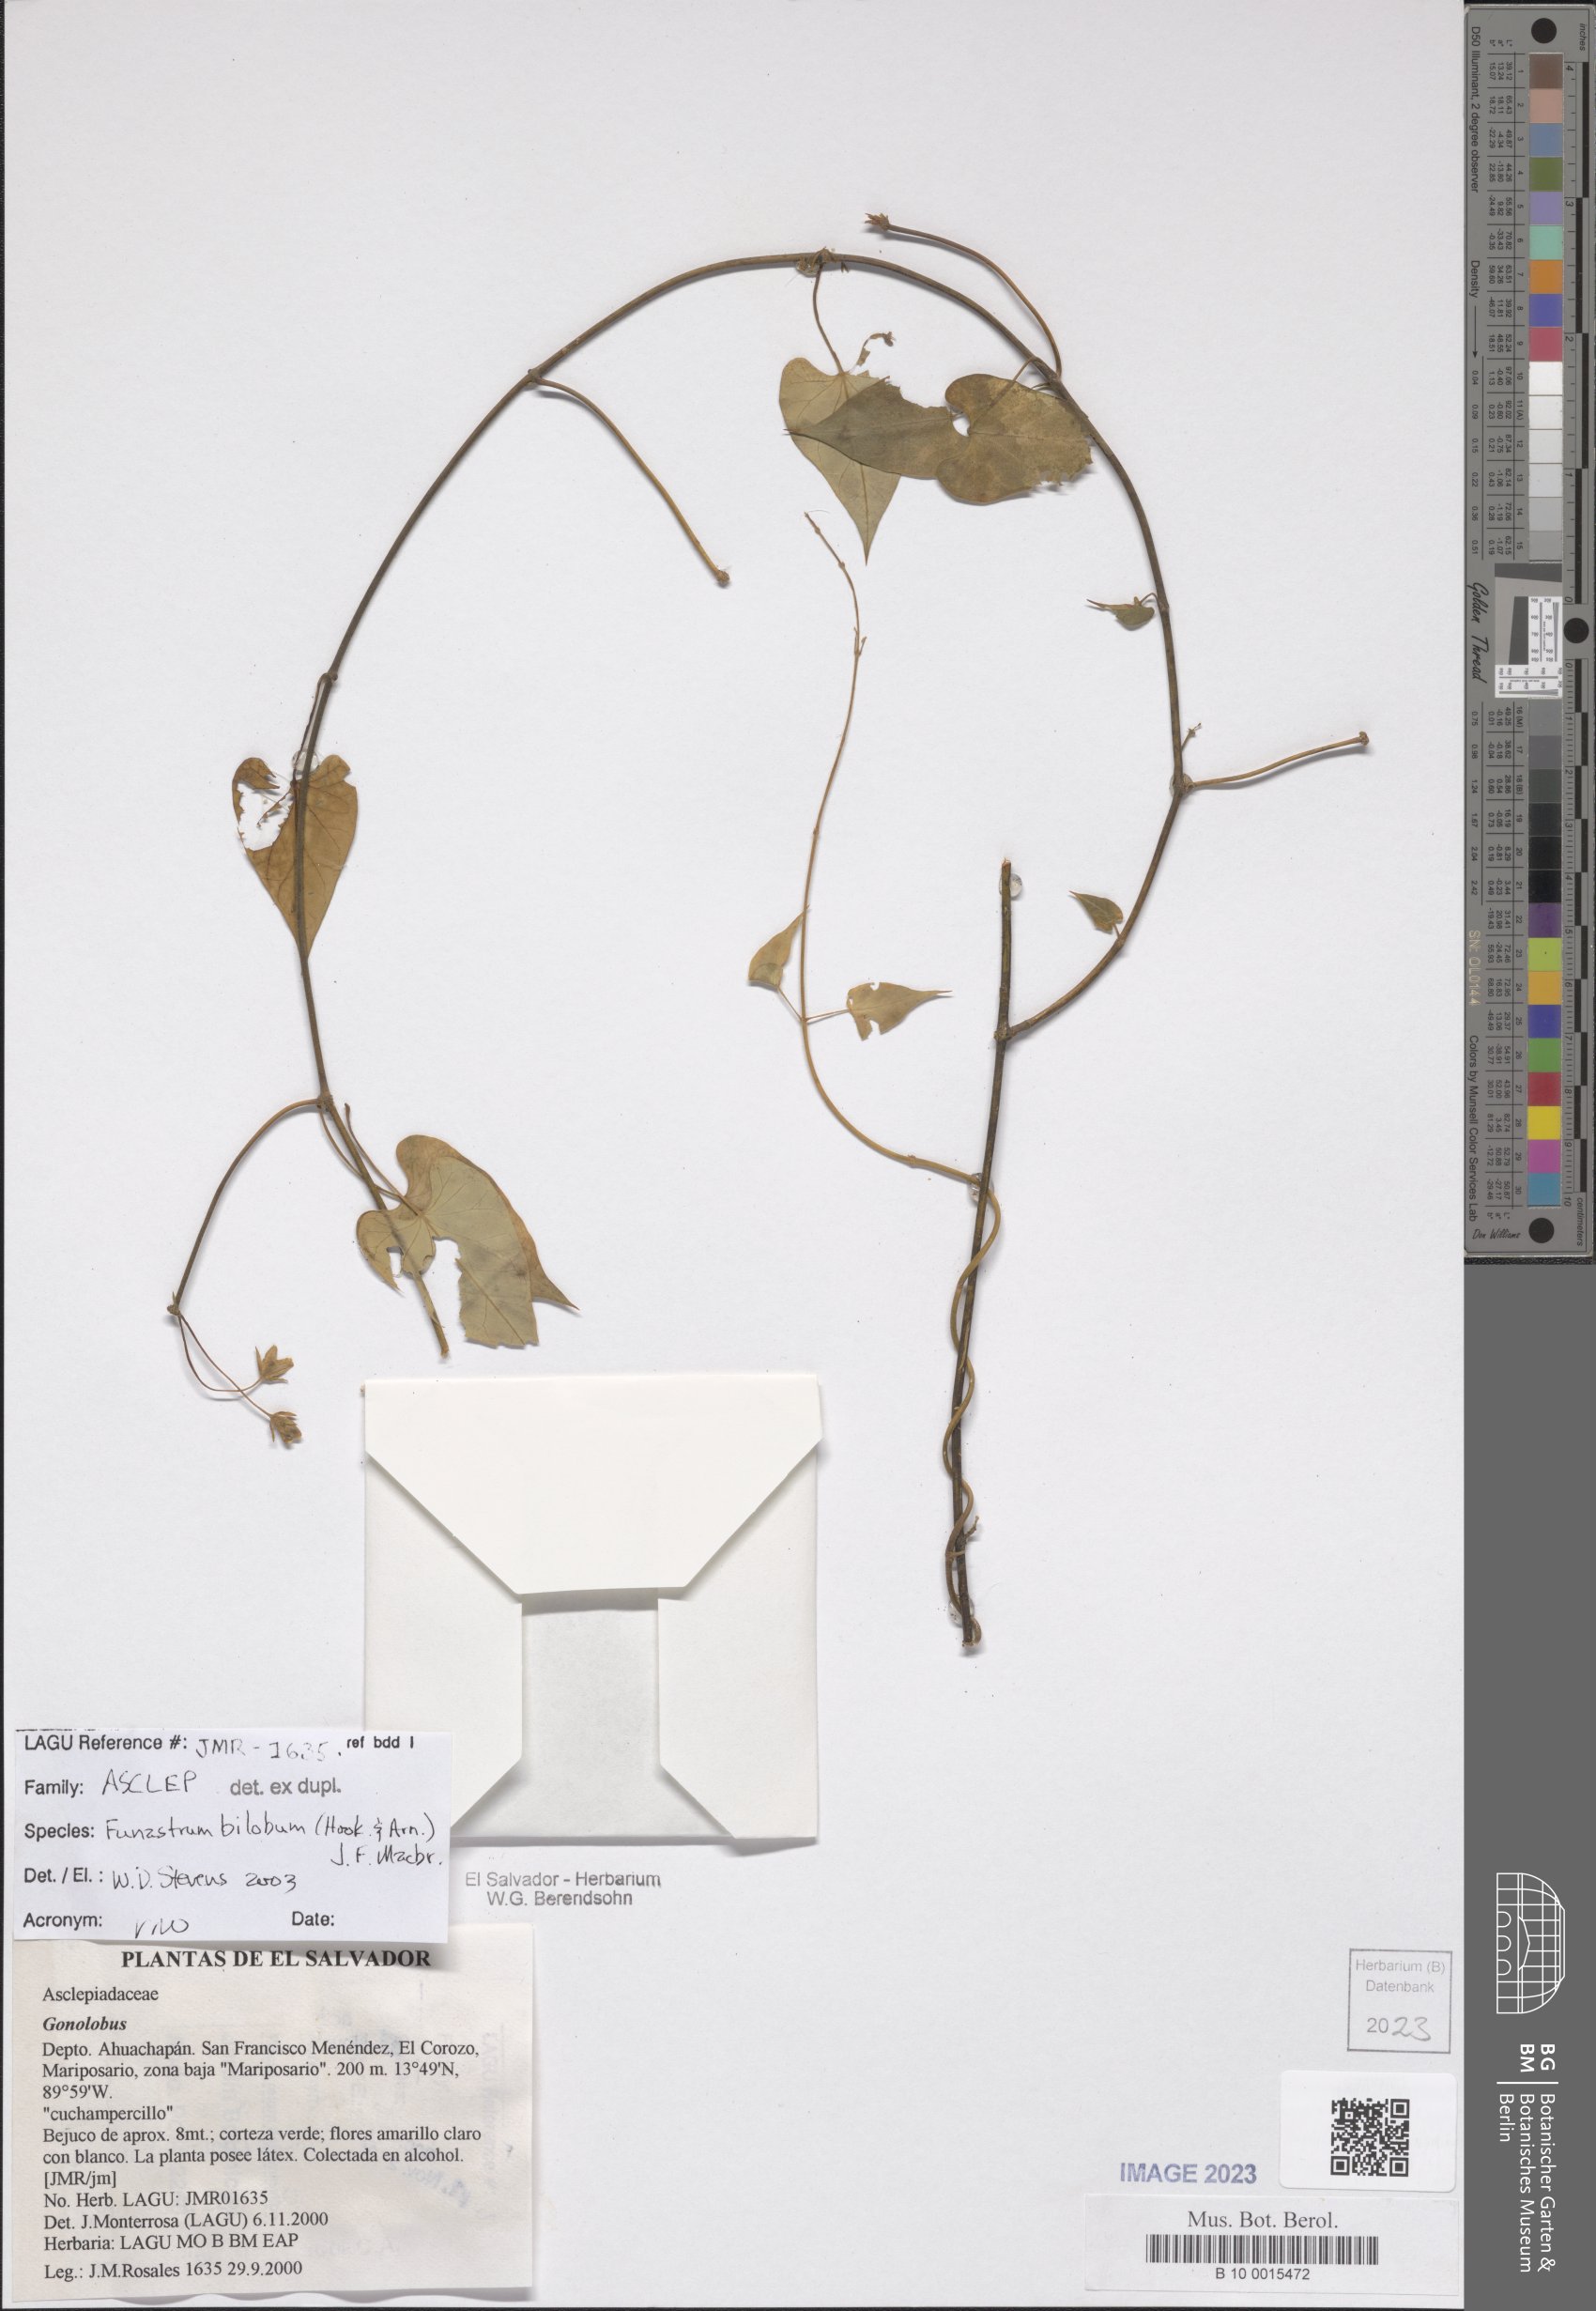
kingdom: Plantae
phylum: Tracheophyta
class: Magnoliopsida
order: Gentianales
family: Apocynaceae
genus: Funastrum
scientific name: Funastrum bilobum
